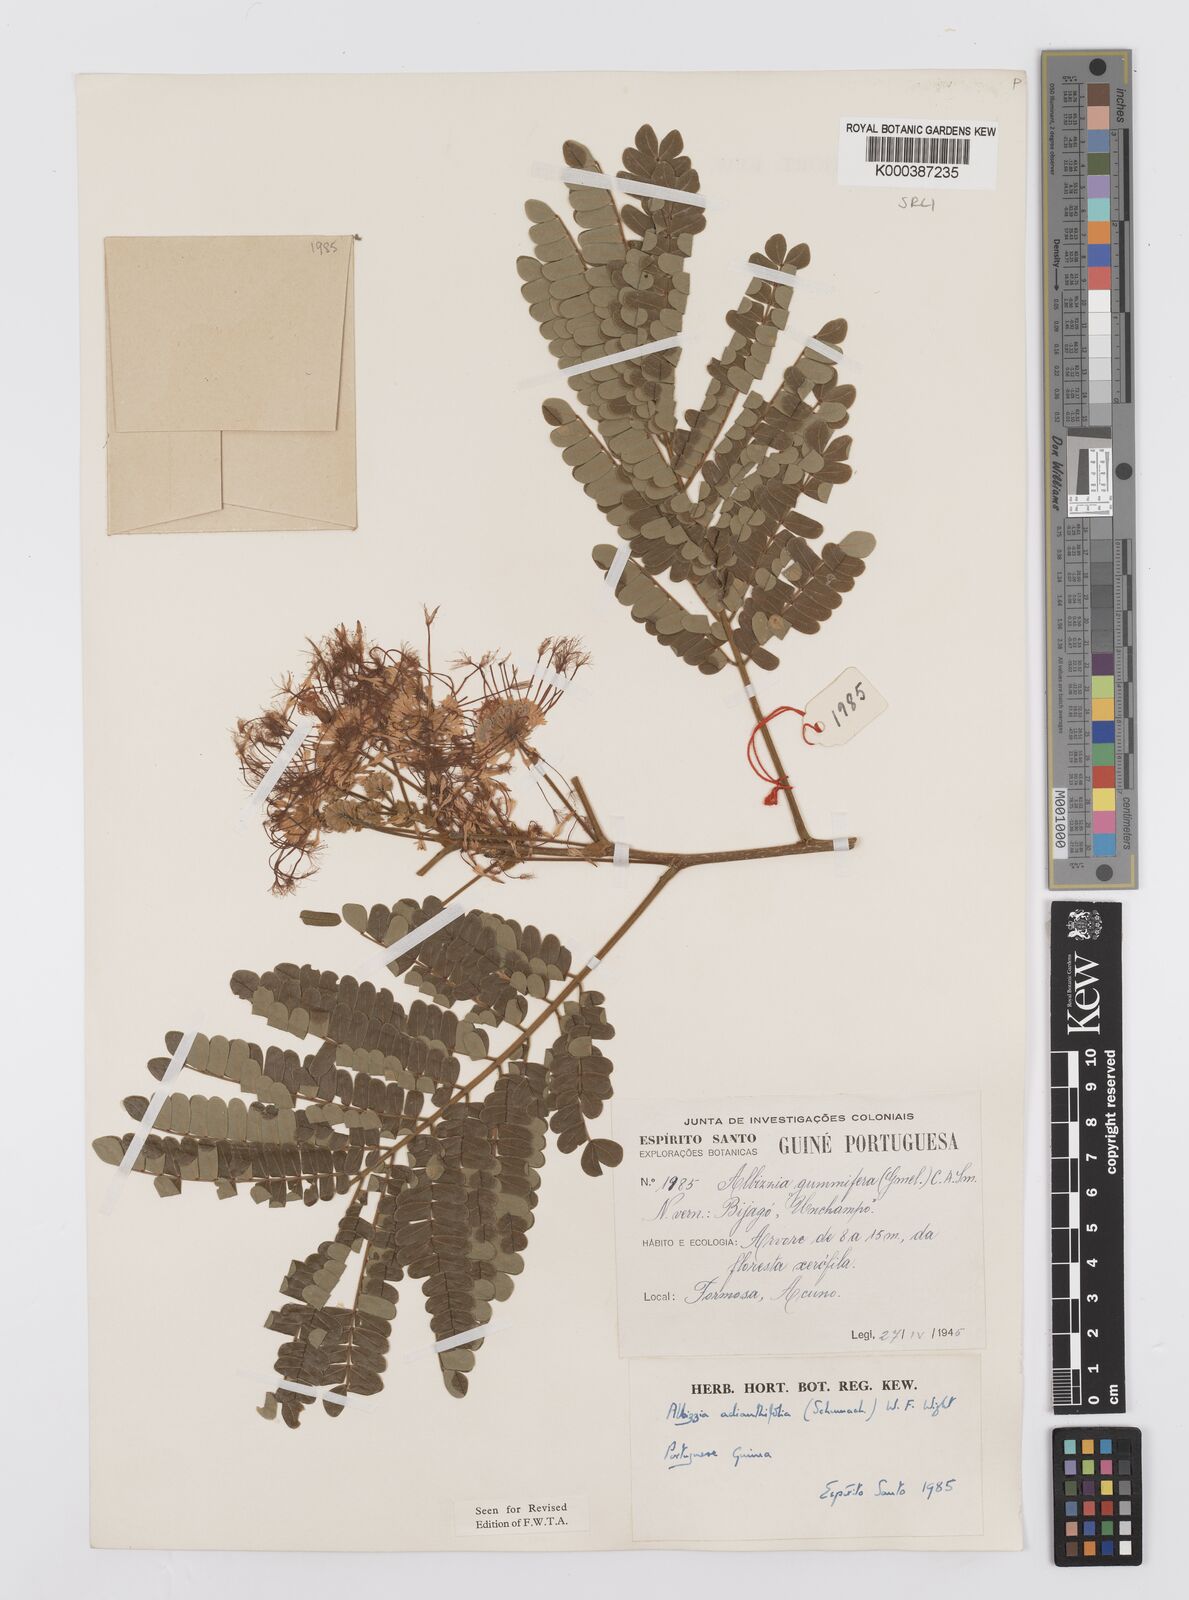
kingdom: Plantae
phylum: Tracheophyta
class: Magnoliopsida
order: Fabales
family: Fabaceae
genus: Albizia
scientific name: Albizia adianthifolia
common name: West african albizia
